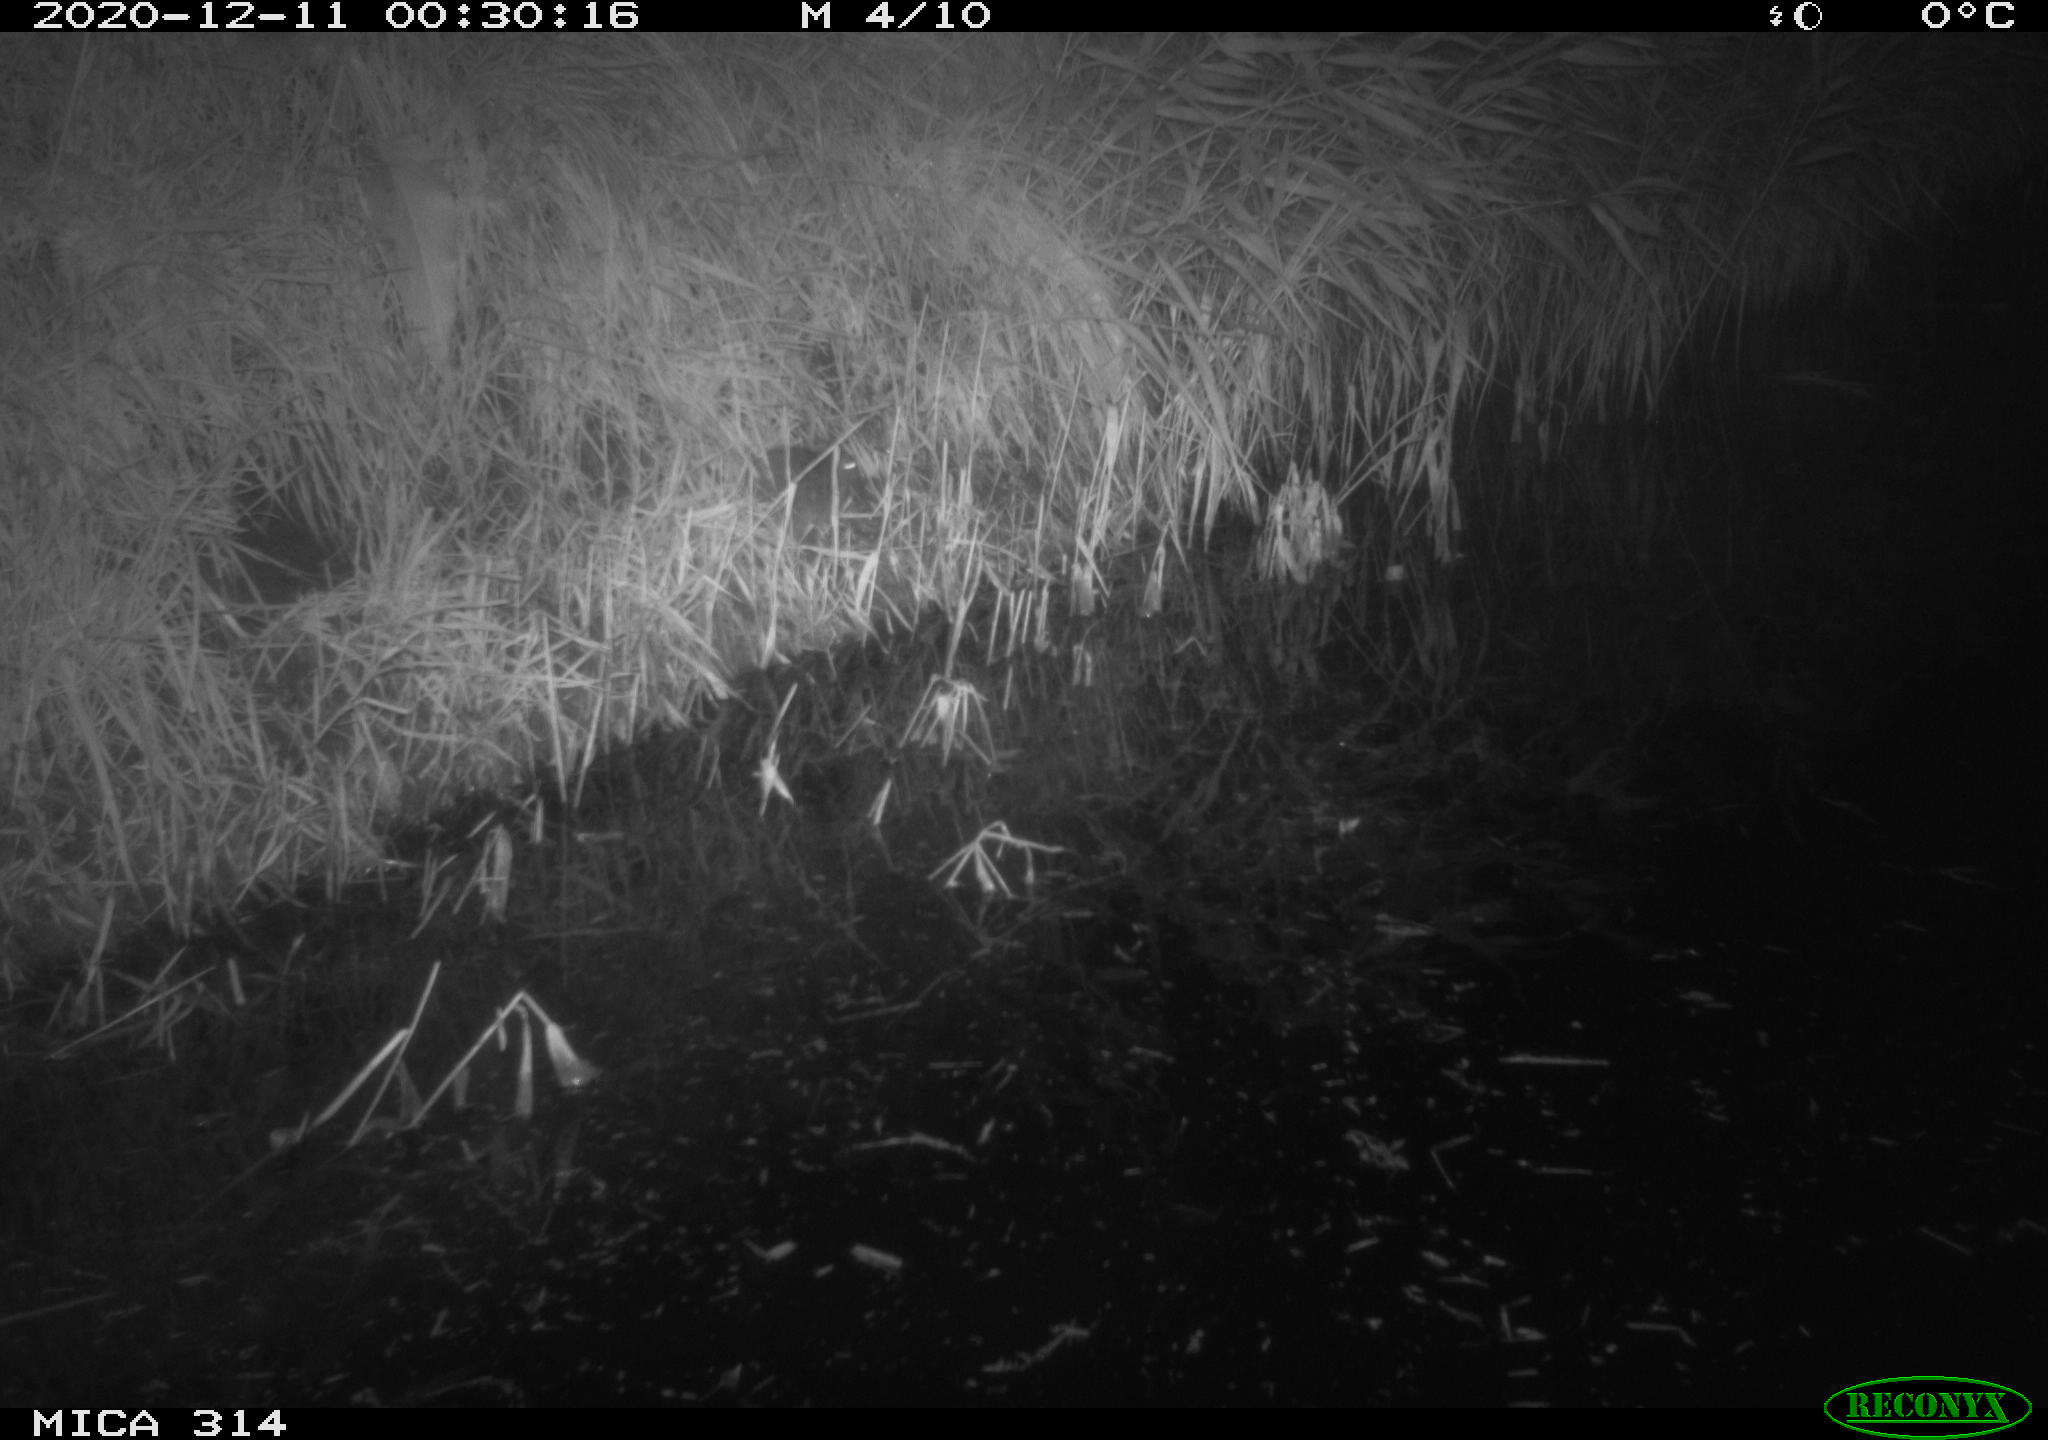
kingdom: Animalia
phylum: Chordata
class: Mammalia
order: Rodentia
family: Muridae
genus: Rattus
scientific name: Rattus norvegicus
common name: Brown rat
